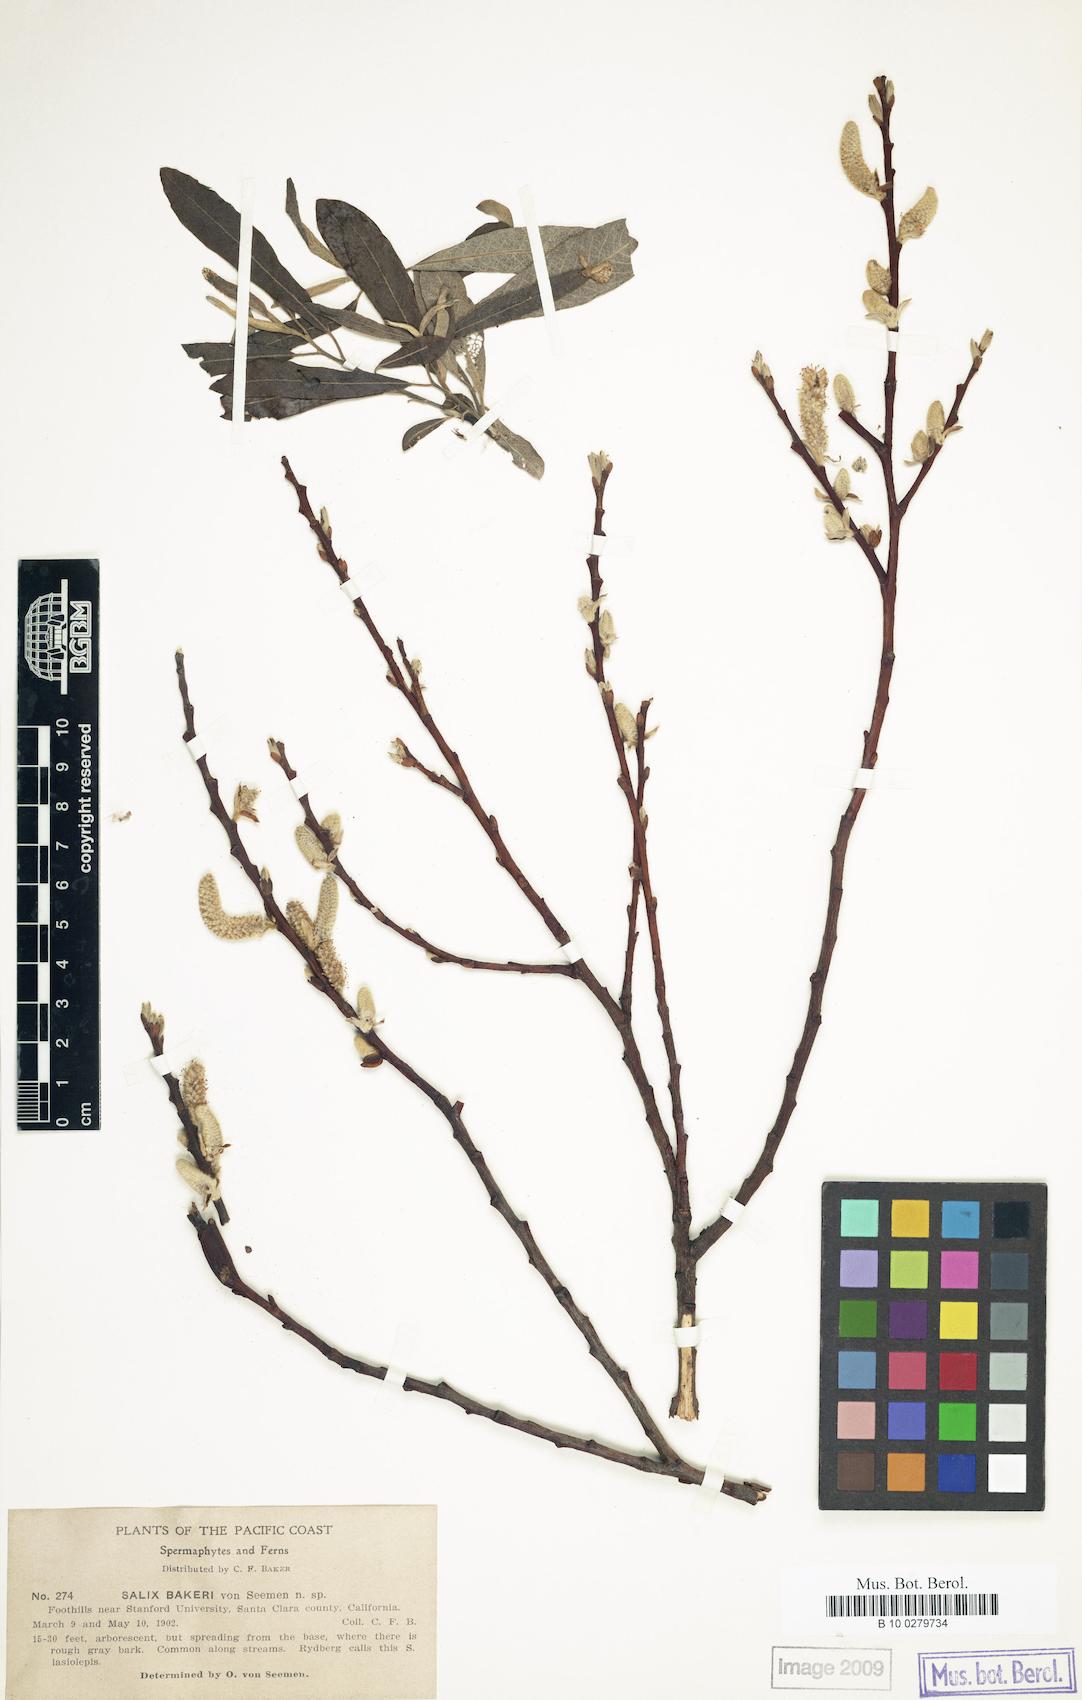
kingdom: Plantae
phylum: Tracheophyta
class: Magnoliopsida
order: Malpighiales
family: Salicaceae
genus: Salix
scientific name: Salix lasiolepis
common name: Arroyo willow
